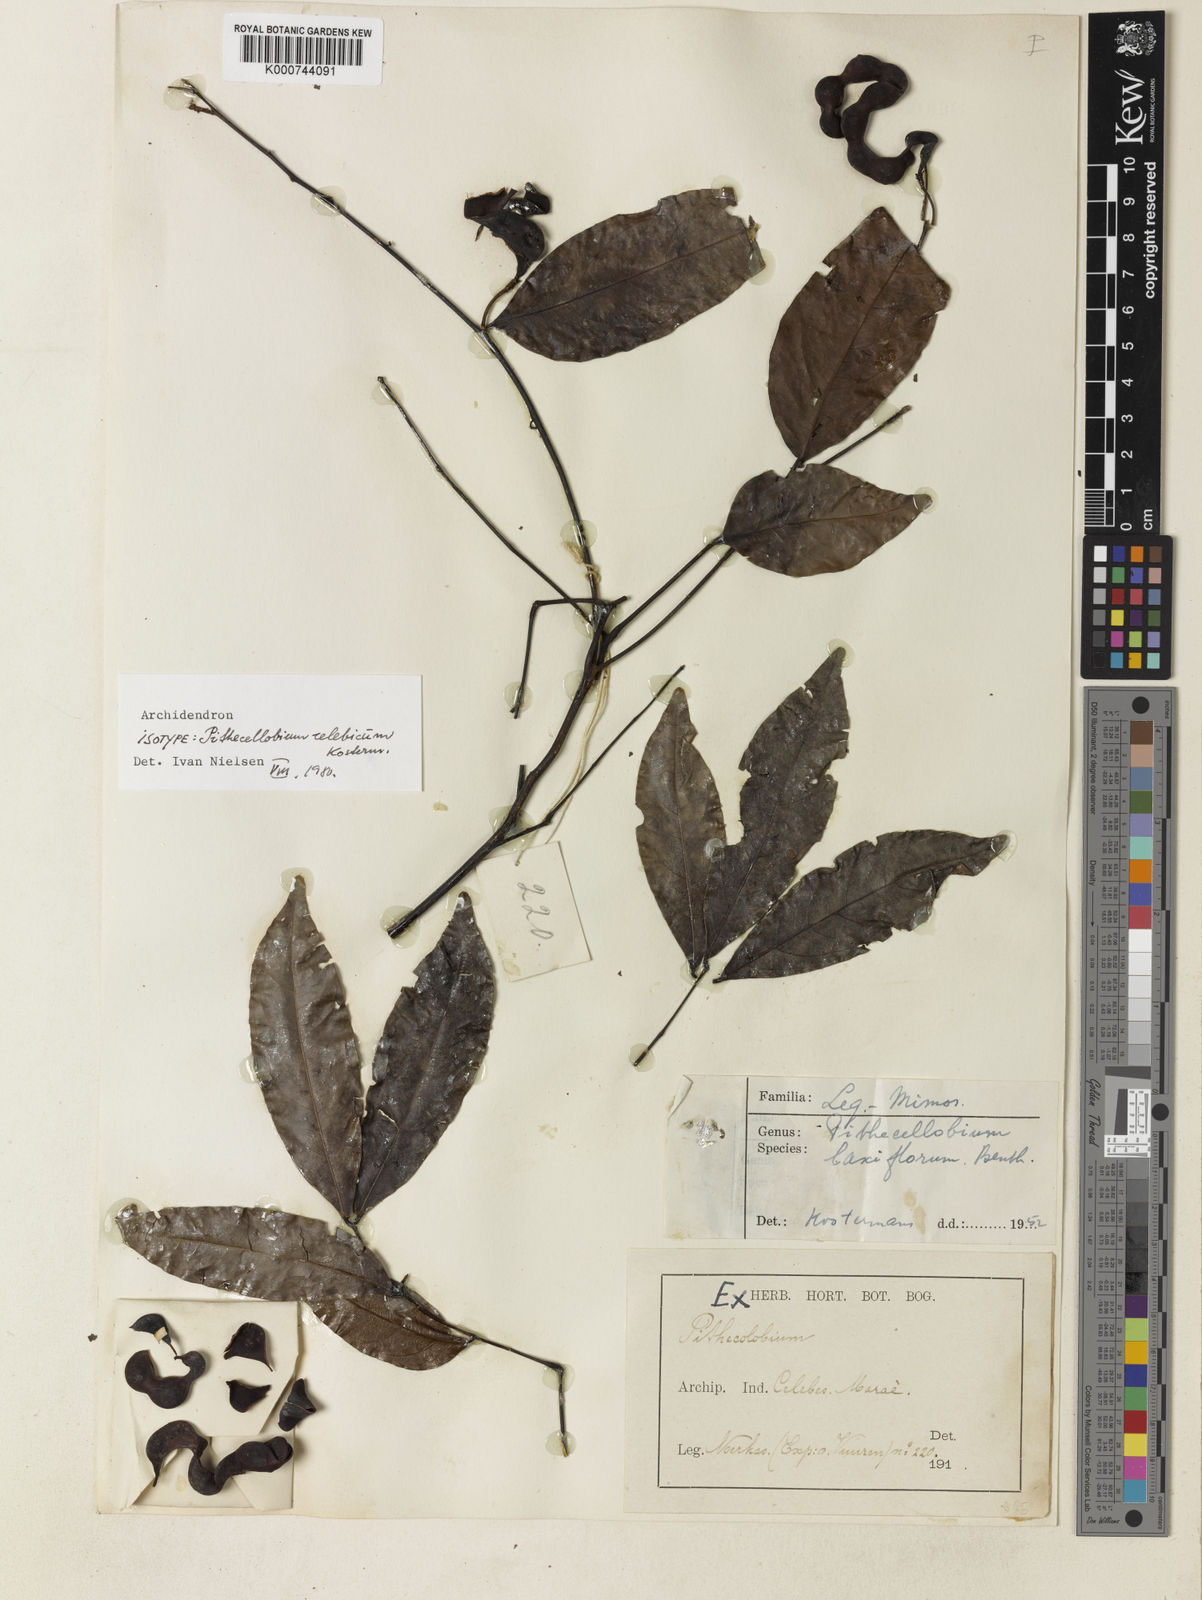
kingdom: Plantae
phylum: Tracheophyta
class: Magnoliopsida
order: Fabales
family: Fabaceae
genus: Archidendron
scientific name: Archidendron pauciflorum
